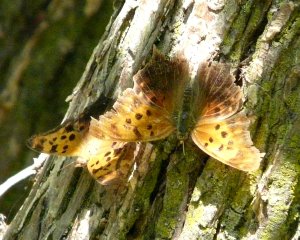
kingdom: Animalia
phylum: Arthropoda
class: Insecta
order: Lepidoptera
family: Nymphalidae
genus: Polygonia
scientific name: Polygonia interrogationis
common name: Question Mark
